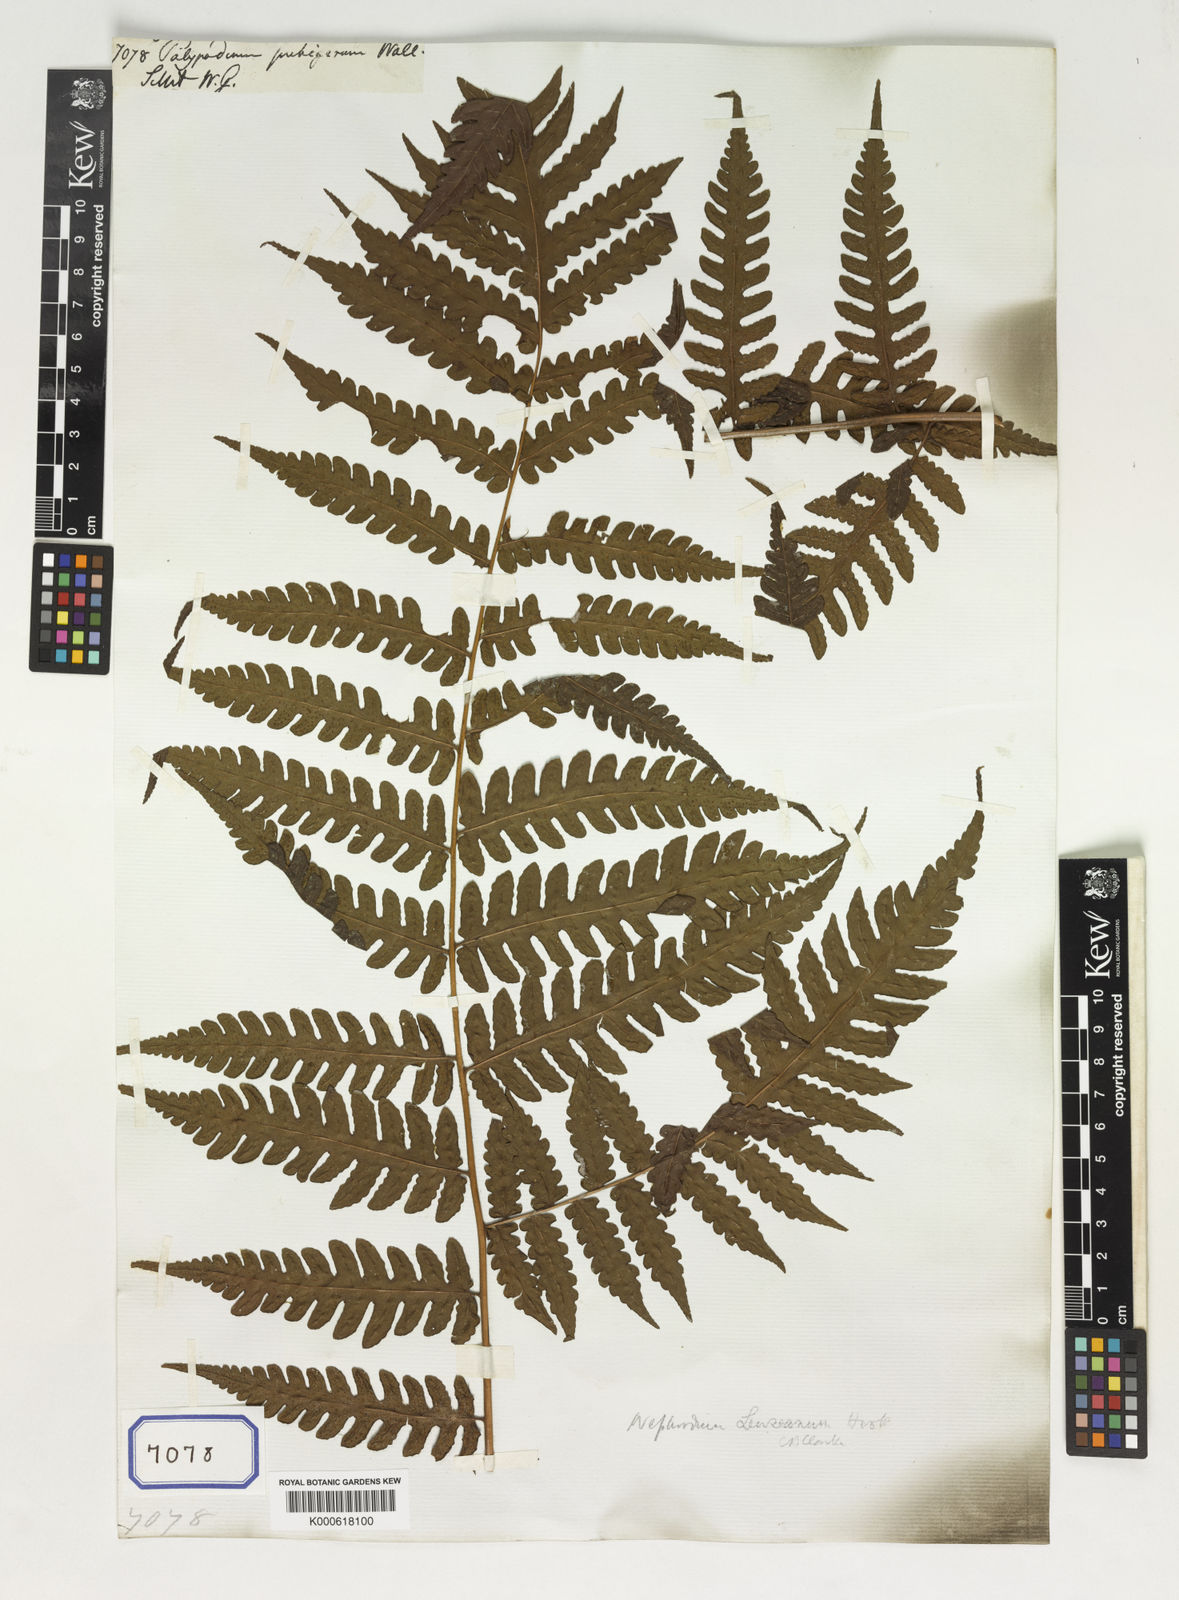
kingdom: Plantae
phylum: Tracheophyta
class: Polypodiopsida
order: Polypodiales
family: Dryopteridaceae
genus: Polystichum
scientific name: Polystichum polyodon
